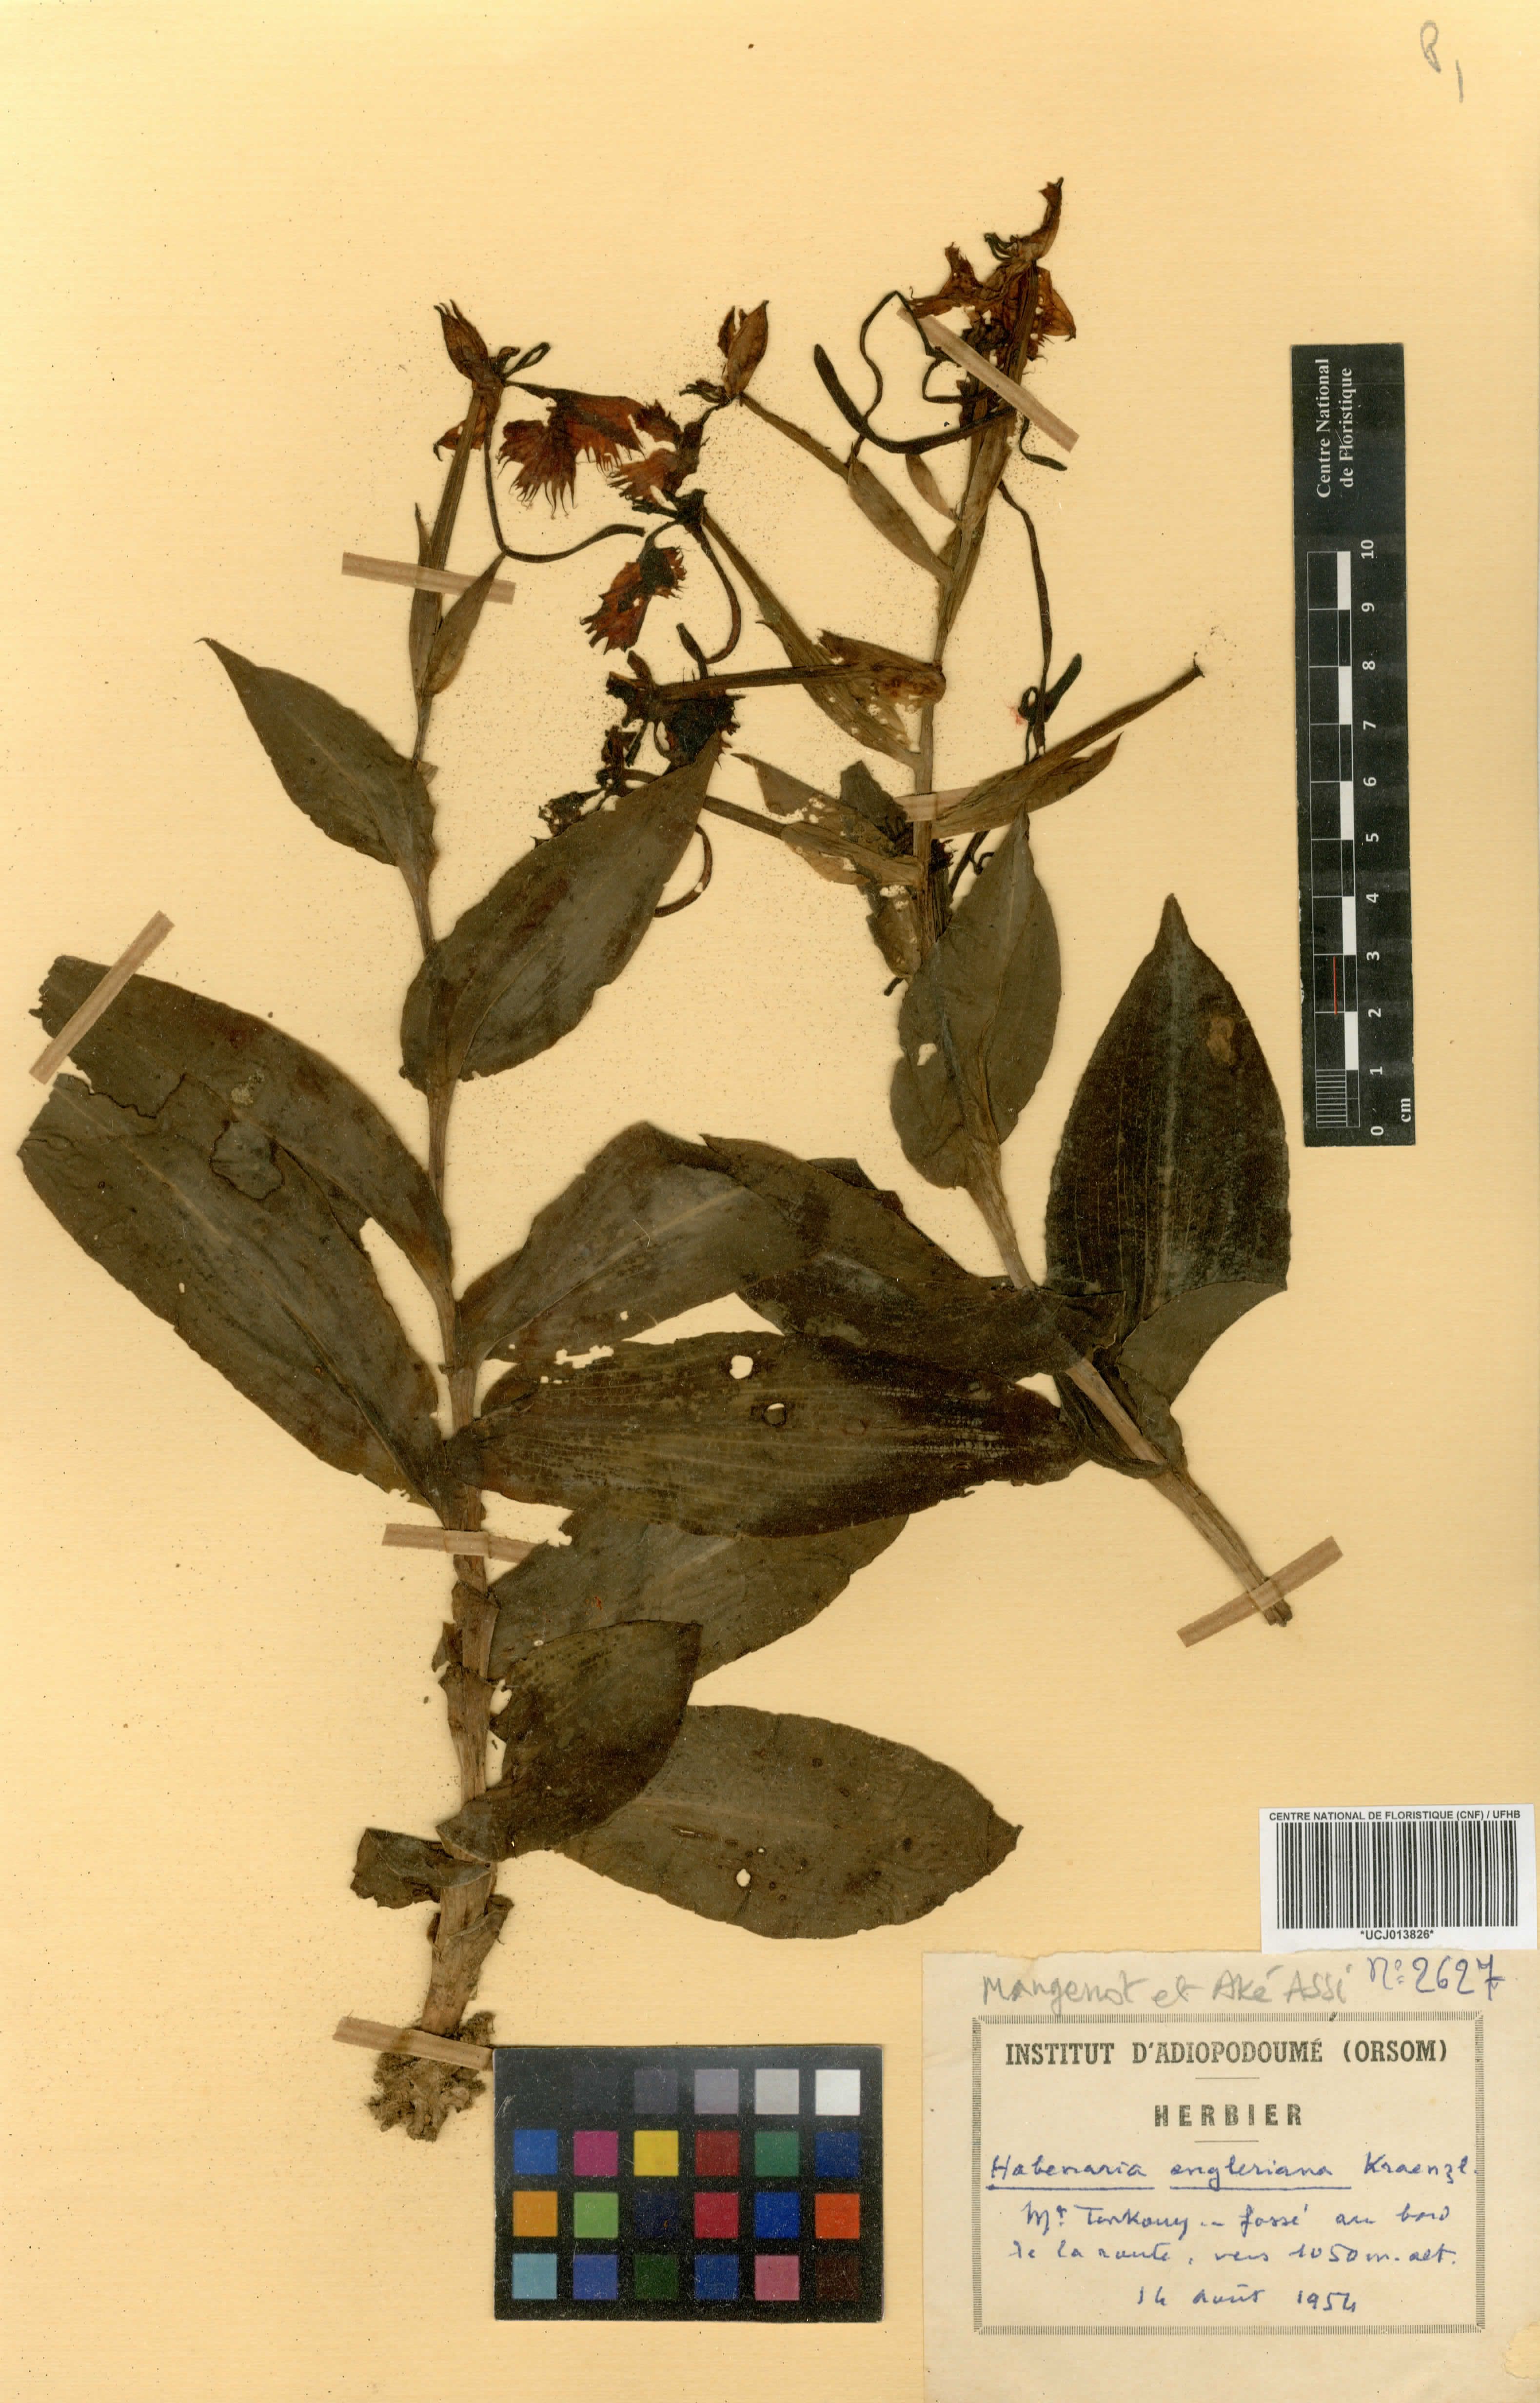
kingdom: Plantae
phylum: Tracheophyta
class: Liliopsida
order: Asparagales
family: Orchidaceae
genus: Habenaria
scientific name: Habenaria engleriana
